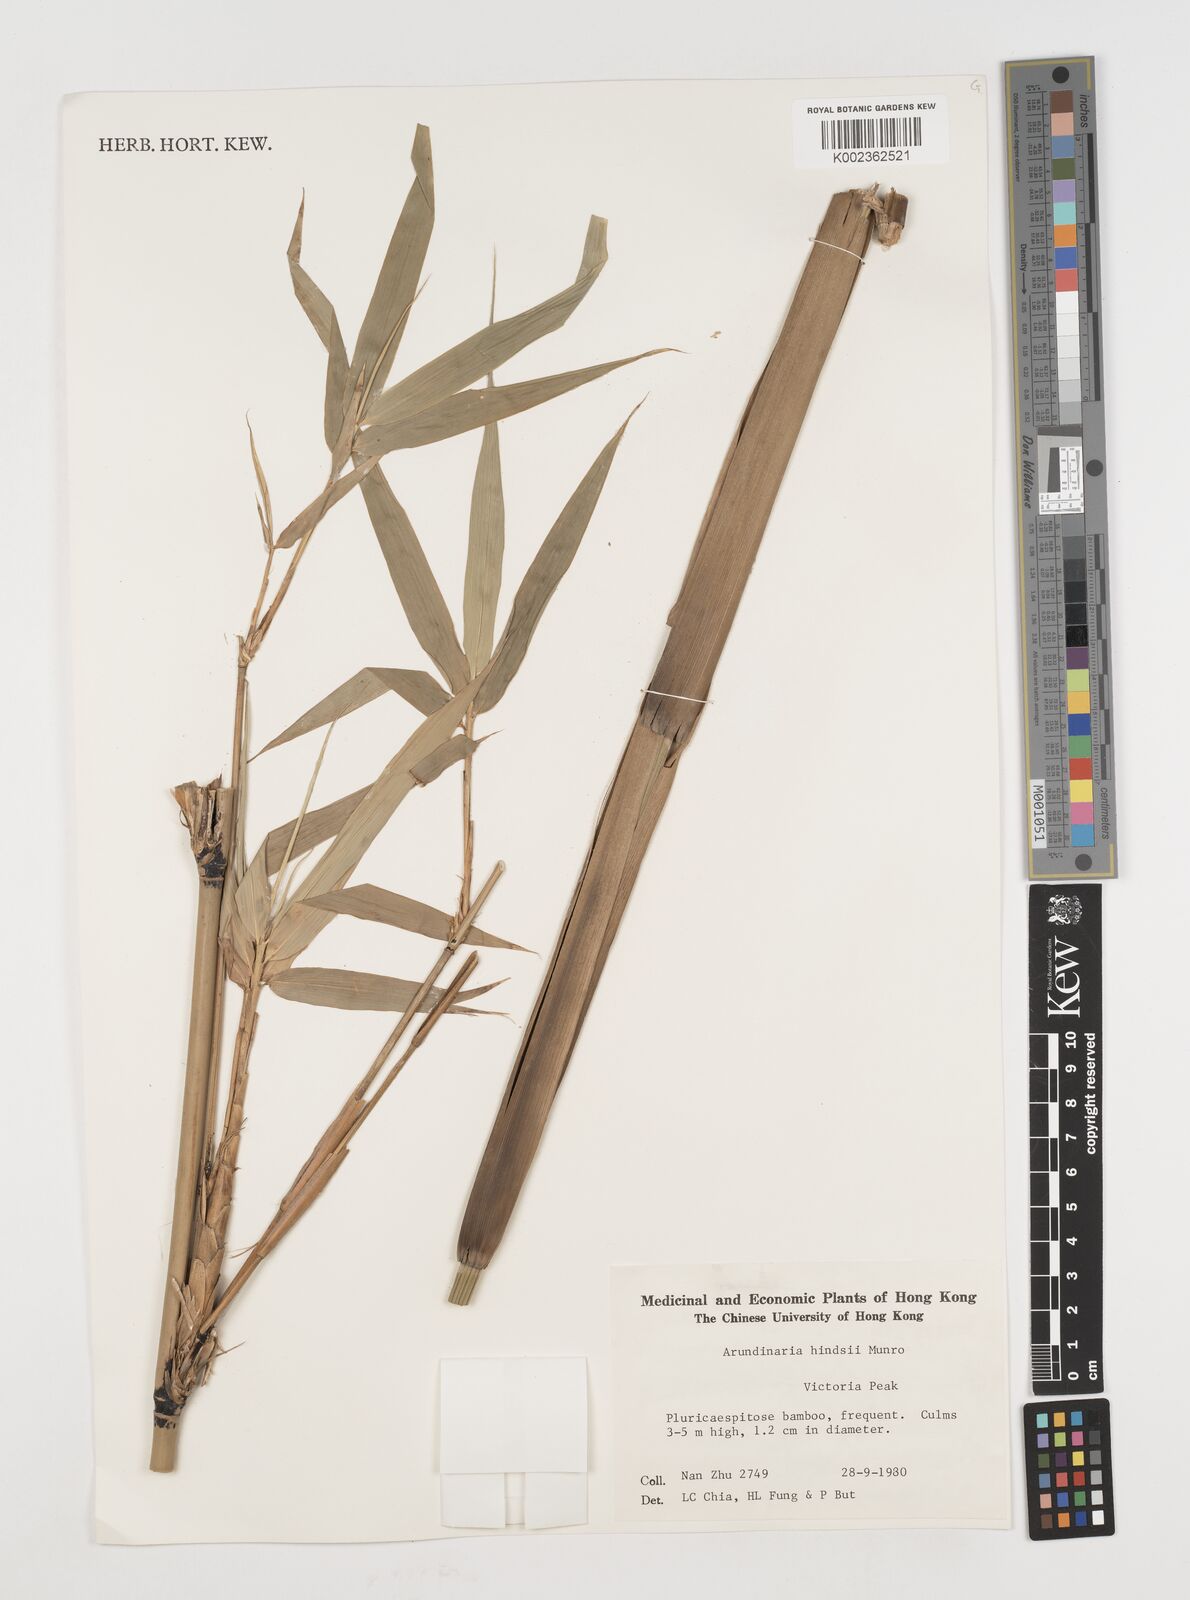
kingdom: Plantae
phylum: Tracheophyta
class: Liliopsida
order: Poales
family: Poaceae
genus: Pseudosasa
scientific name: Pseudosasa hindsii
